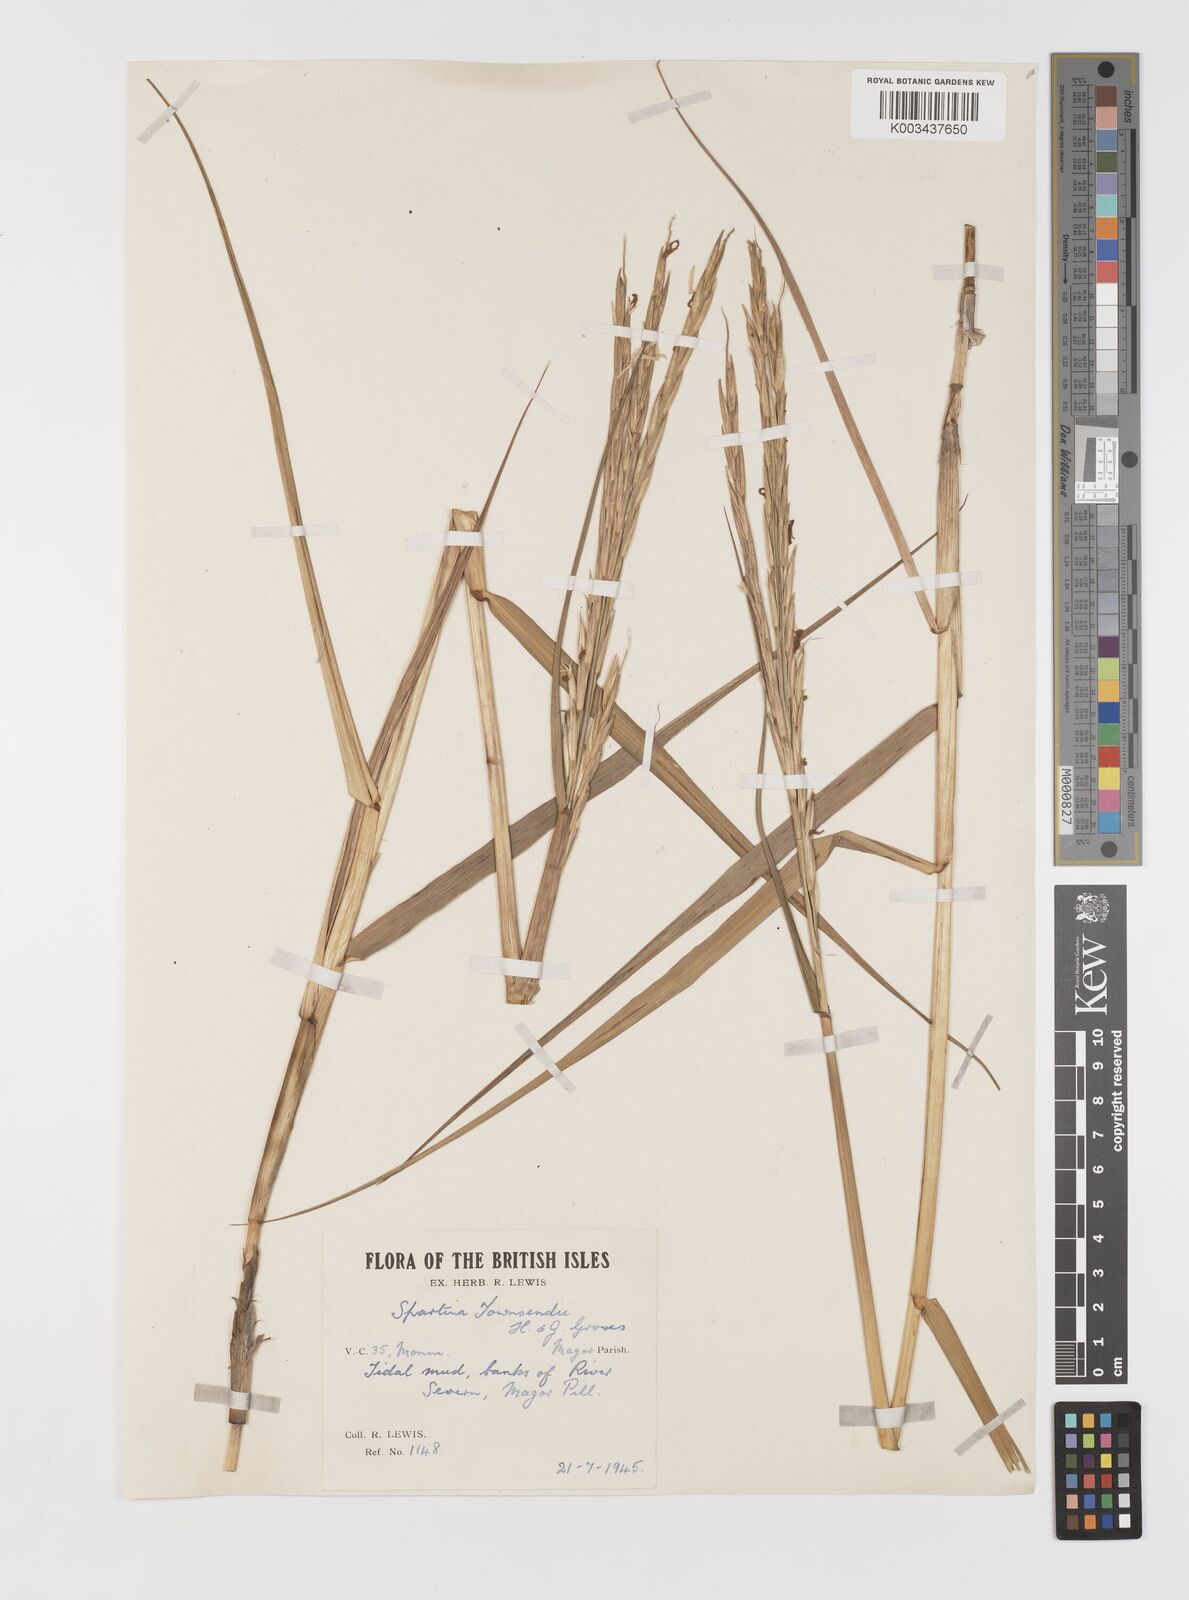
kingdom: Plantae
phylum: Tracheophyta
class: Liliopsida
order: Poales
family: Poaceae
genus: Sporobolus
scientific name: Sporobolus anglicus
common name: English cordgrass
